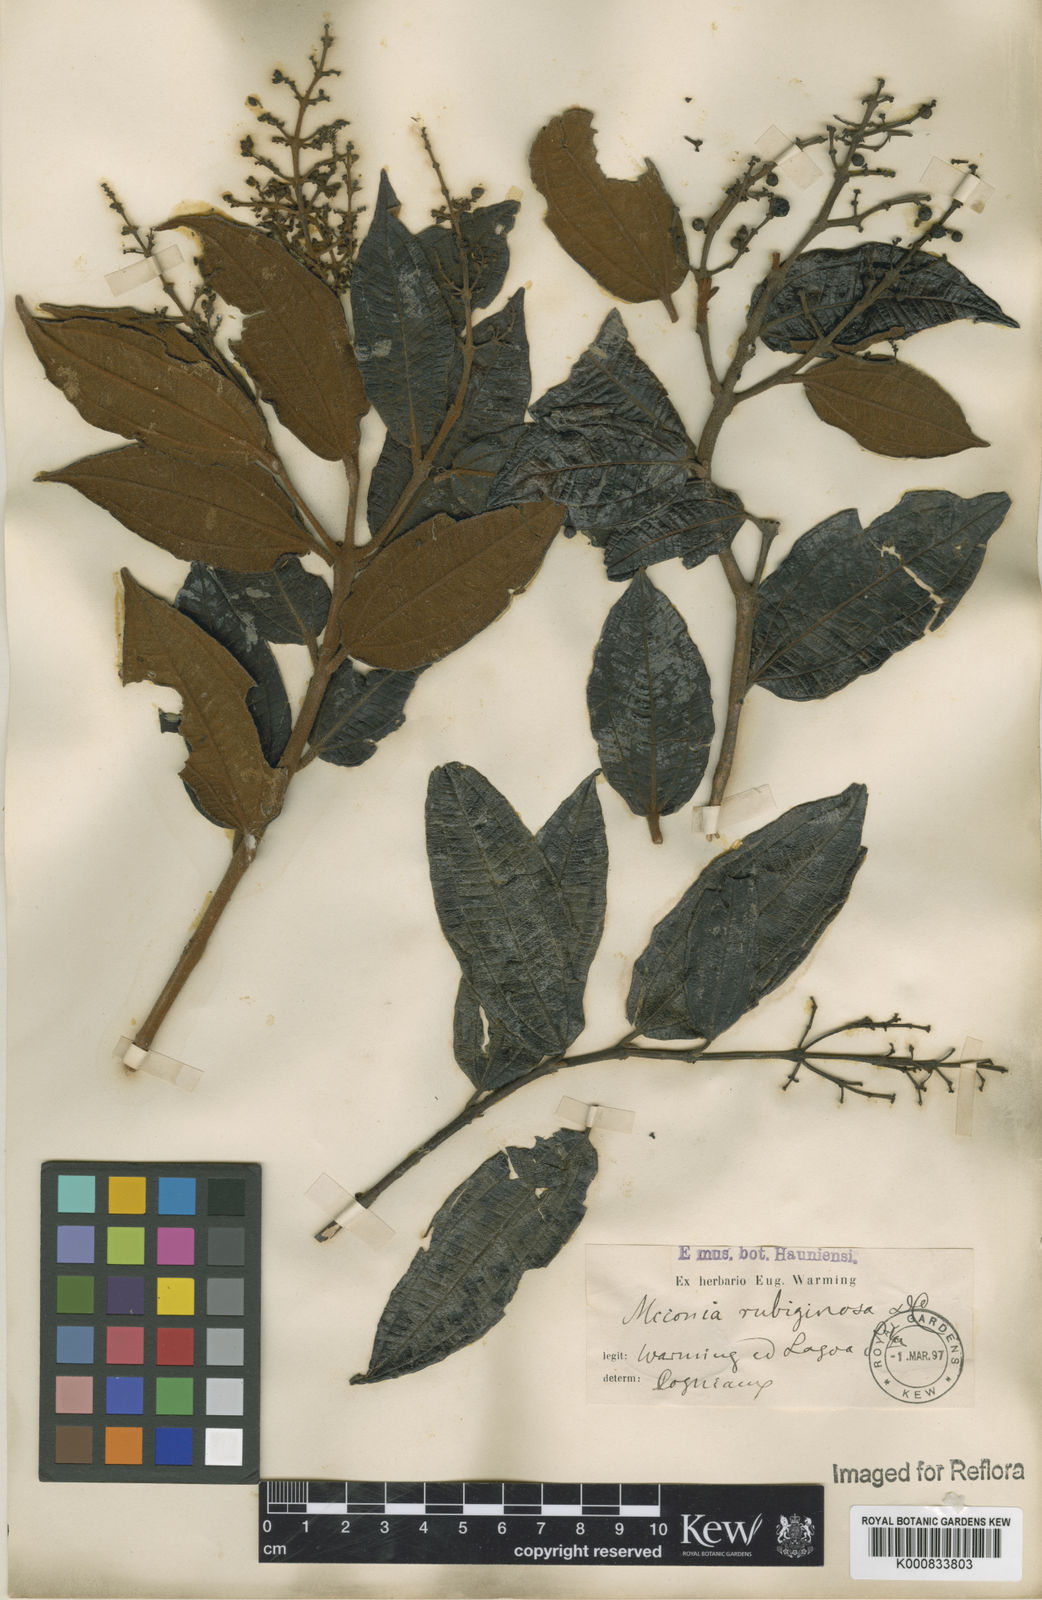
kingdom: Plantae
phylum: Tracheophyta
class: Magnoliopsida
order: Myrtales
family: Melastomataceae
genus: Miconia
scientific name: Miconia rubiginosa
